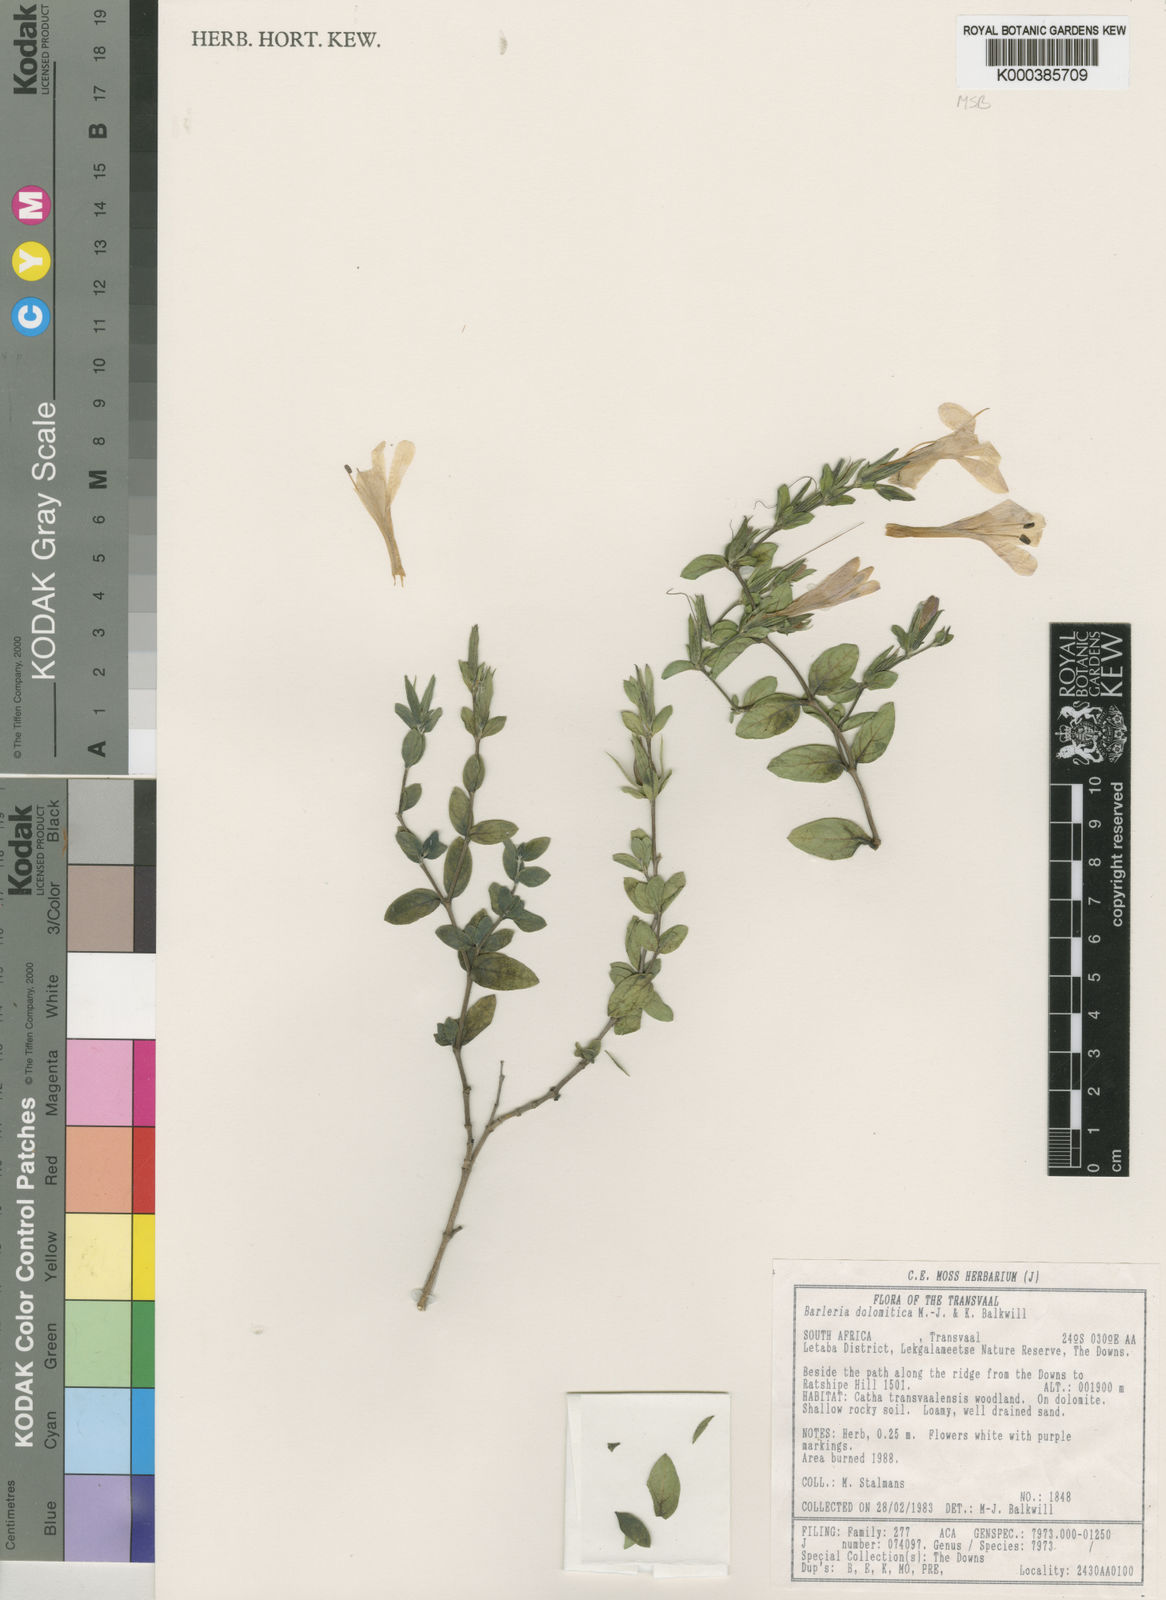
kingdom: Plantae
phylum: Tracheophyta
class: Magnoliopsida
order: Lamiales
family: Acanthaceae
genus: Barleria
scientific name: Barleria dolomiticola
